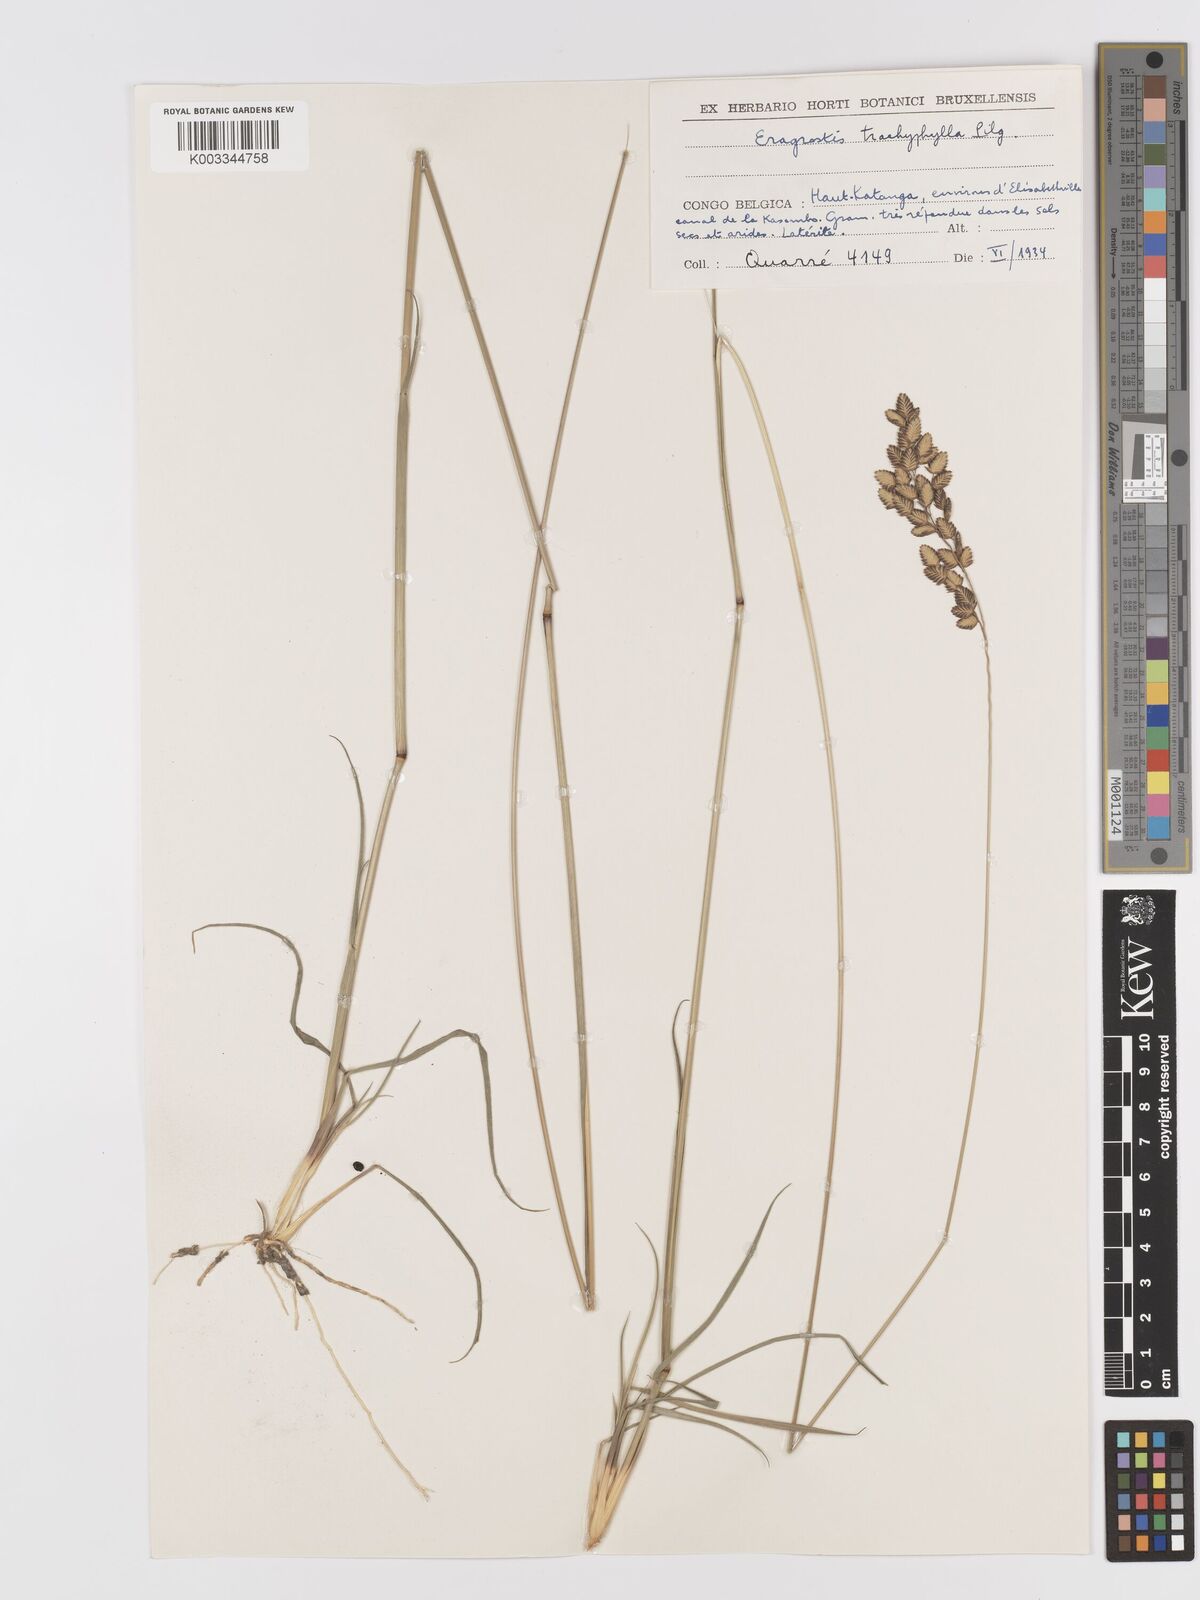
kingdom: Plantae
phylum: Tracheophyta
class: Liliopsida
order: Poales
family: Poaceae
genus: Eragrostis
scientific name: Eragrostis capensis
